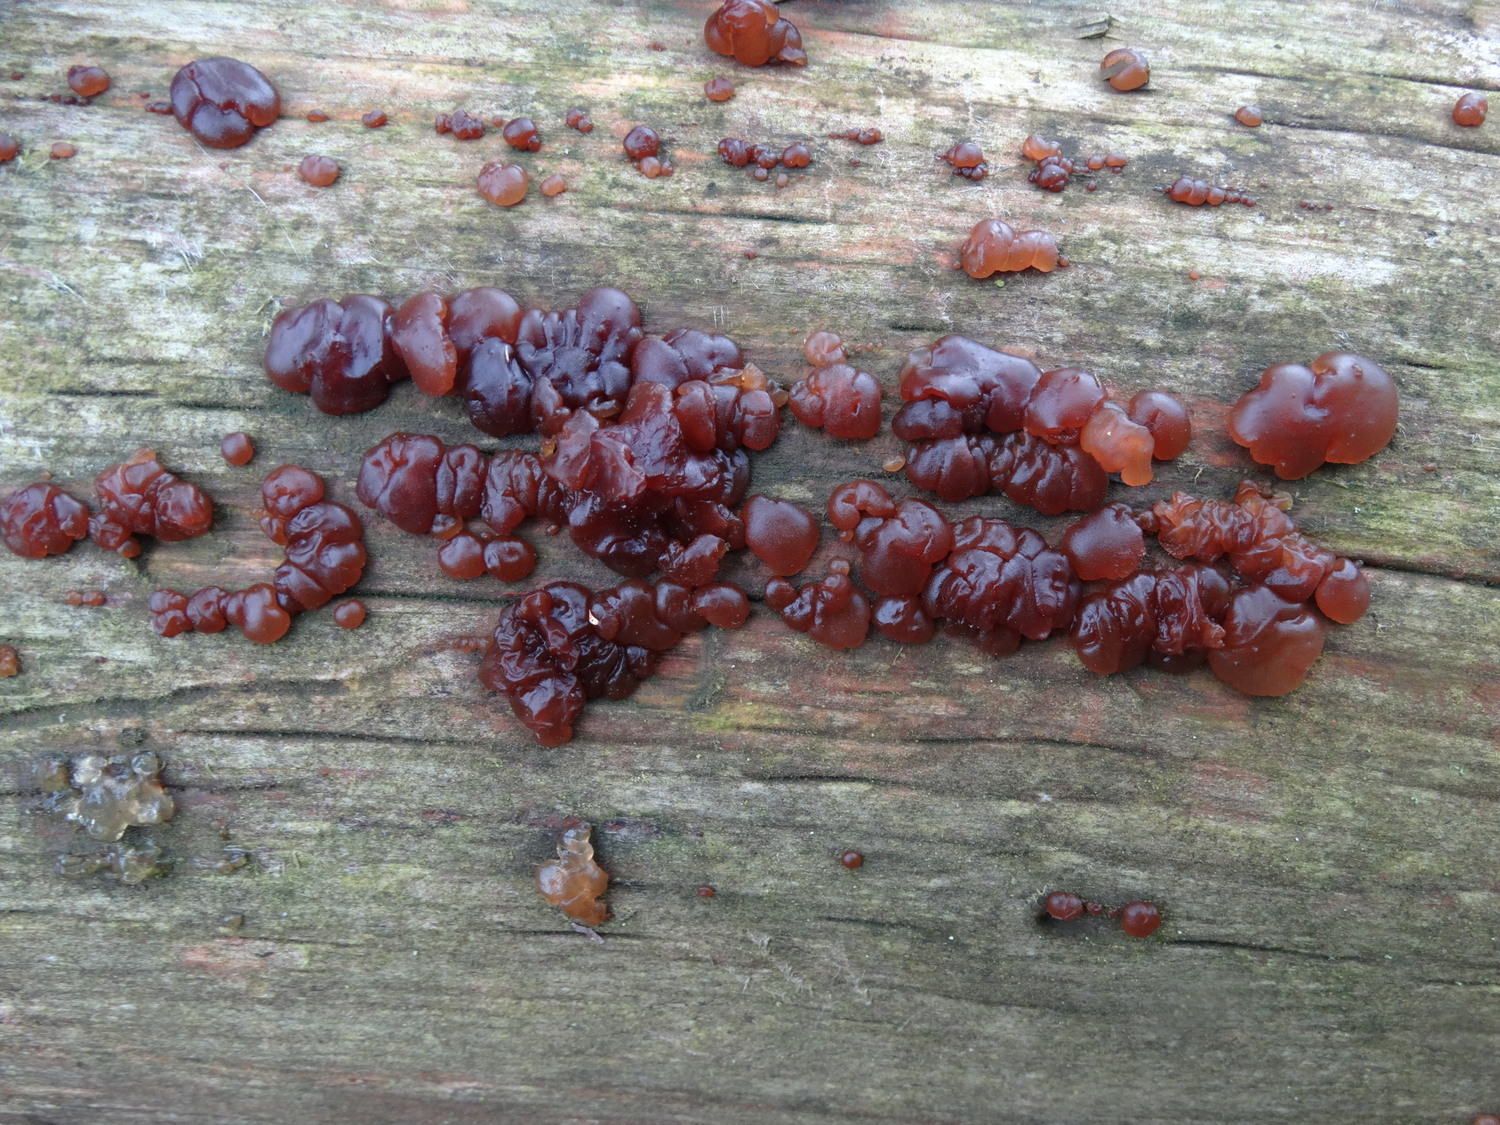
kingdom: Fungi
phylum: Basidiomycota
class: Agaricomycetes
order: Auriculariales
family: Auriculariaceae
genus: Exidia
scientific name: Exidia saccharina
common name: kandis-bævretop
